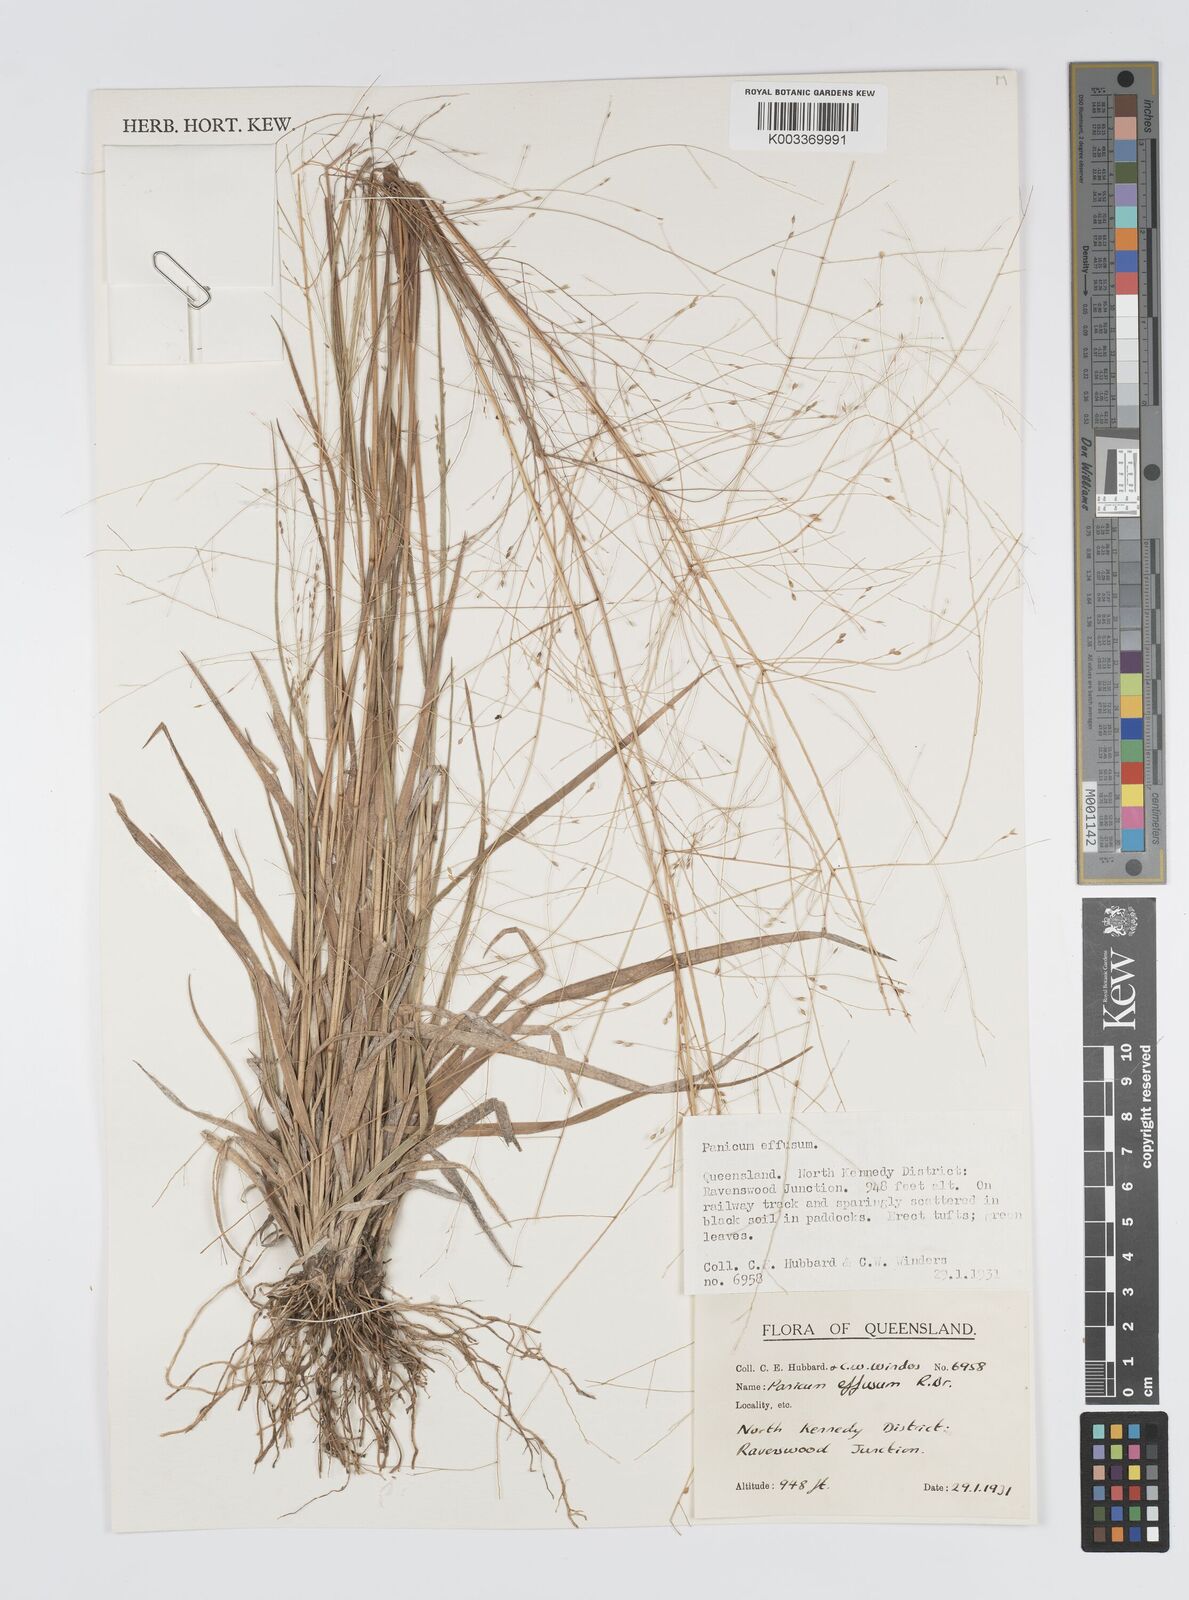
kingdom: Plantae
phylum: Tracheophyta
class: Liliopsida
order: Poales
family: Poaceae
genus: Panicum
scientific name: Panicum effusum
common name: Hairy panic grass
